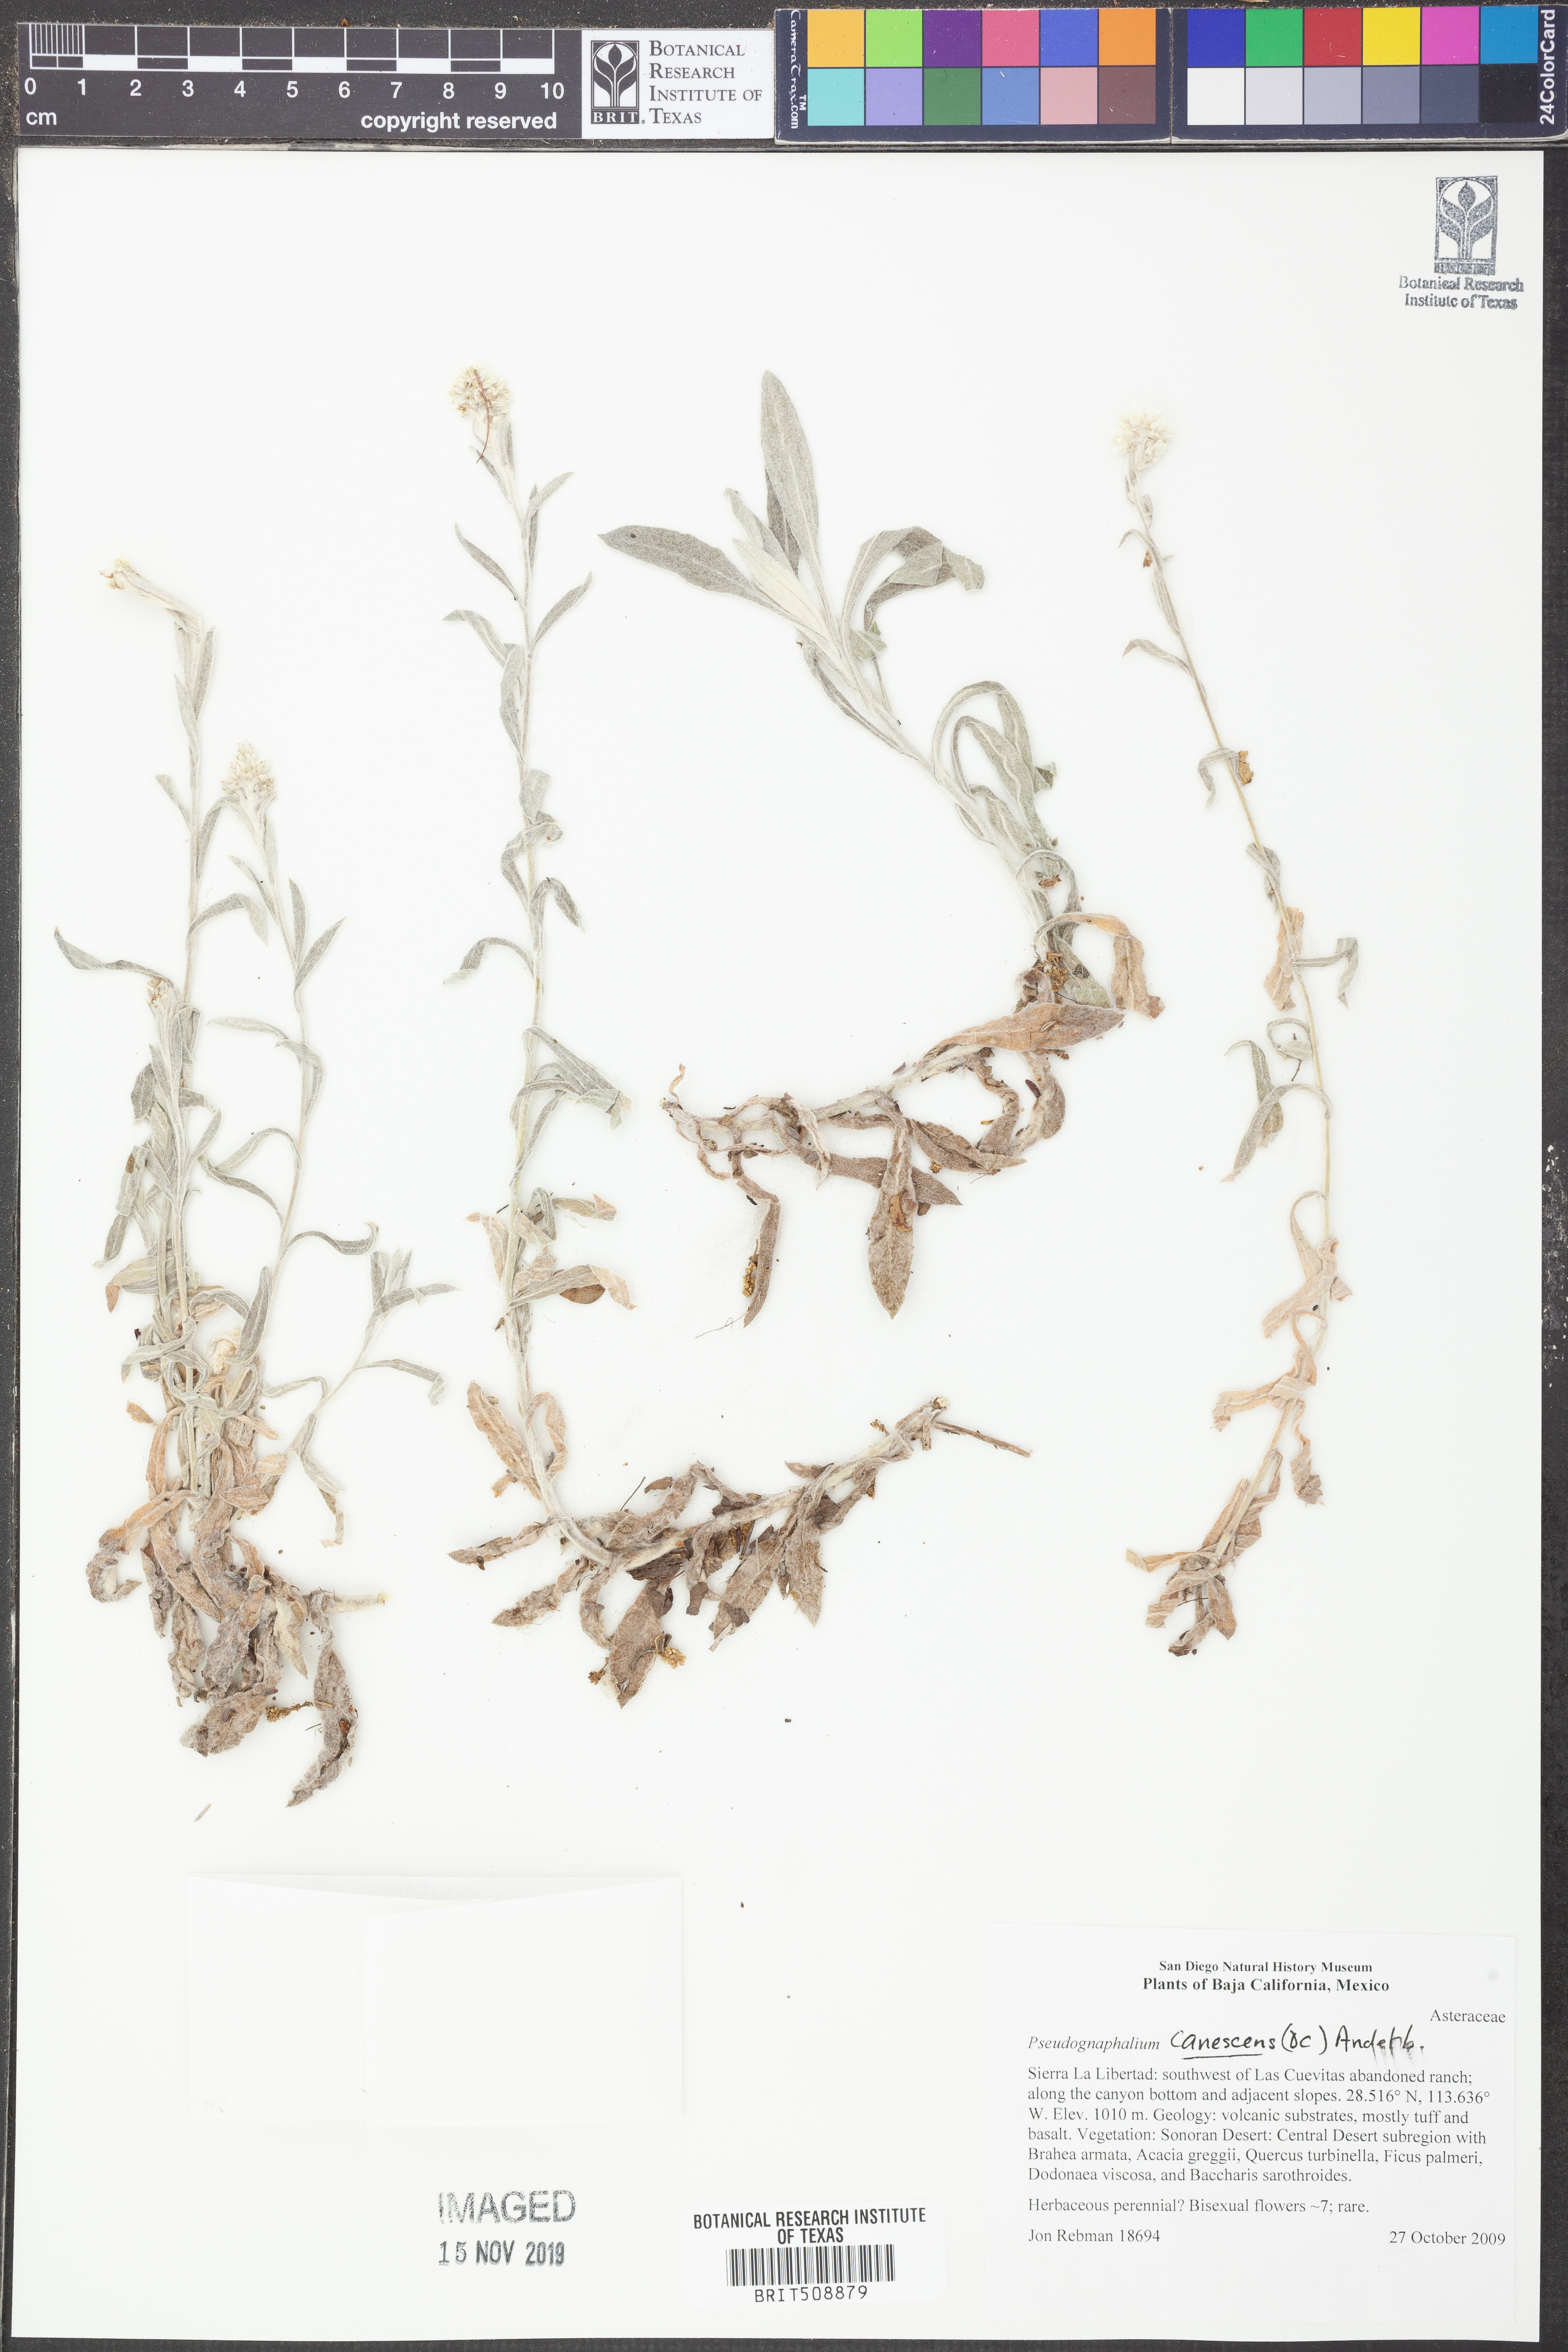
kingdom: Plantae
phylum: Tracheophyta
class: Magnoliopsida
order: Asterales
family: Asteraceae
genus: Pseudognaphalium
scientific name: Pseudognaphalium canescens
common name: Wright's rabbit-tobacco
